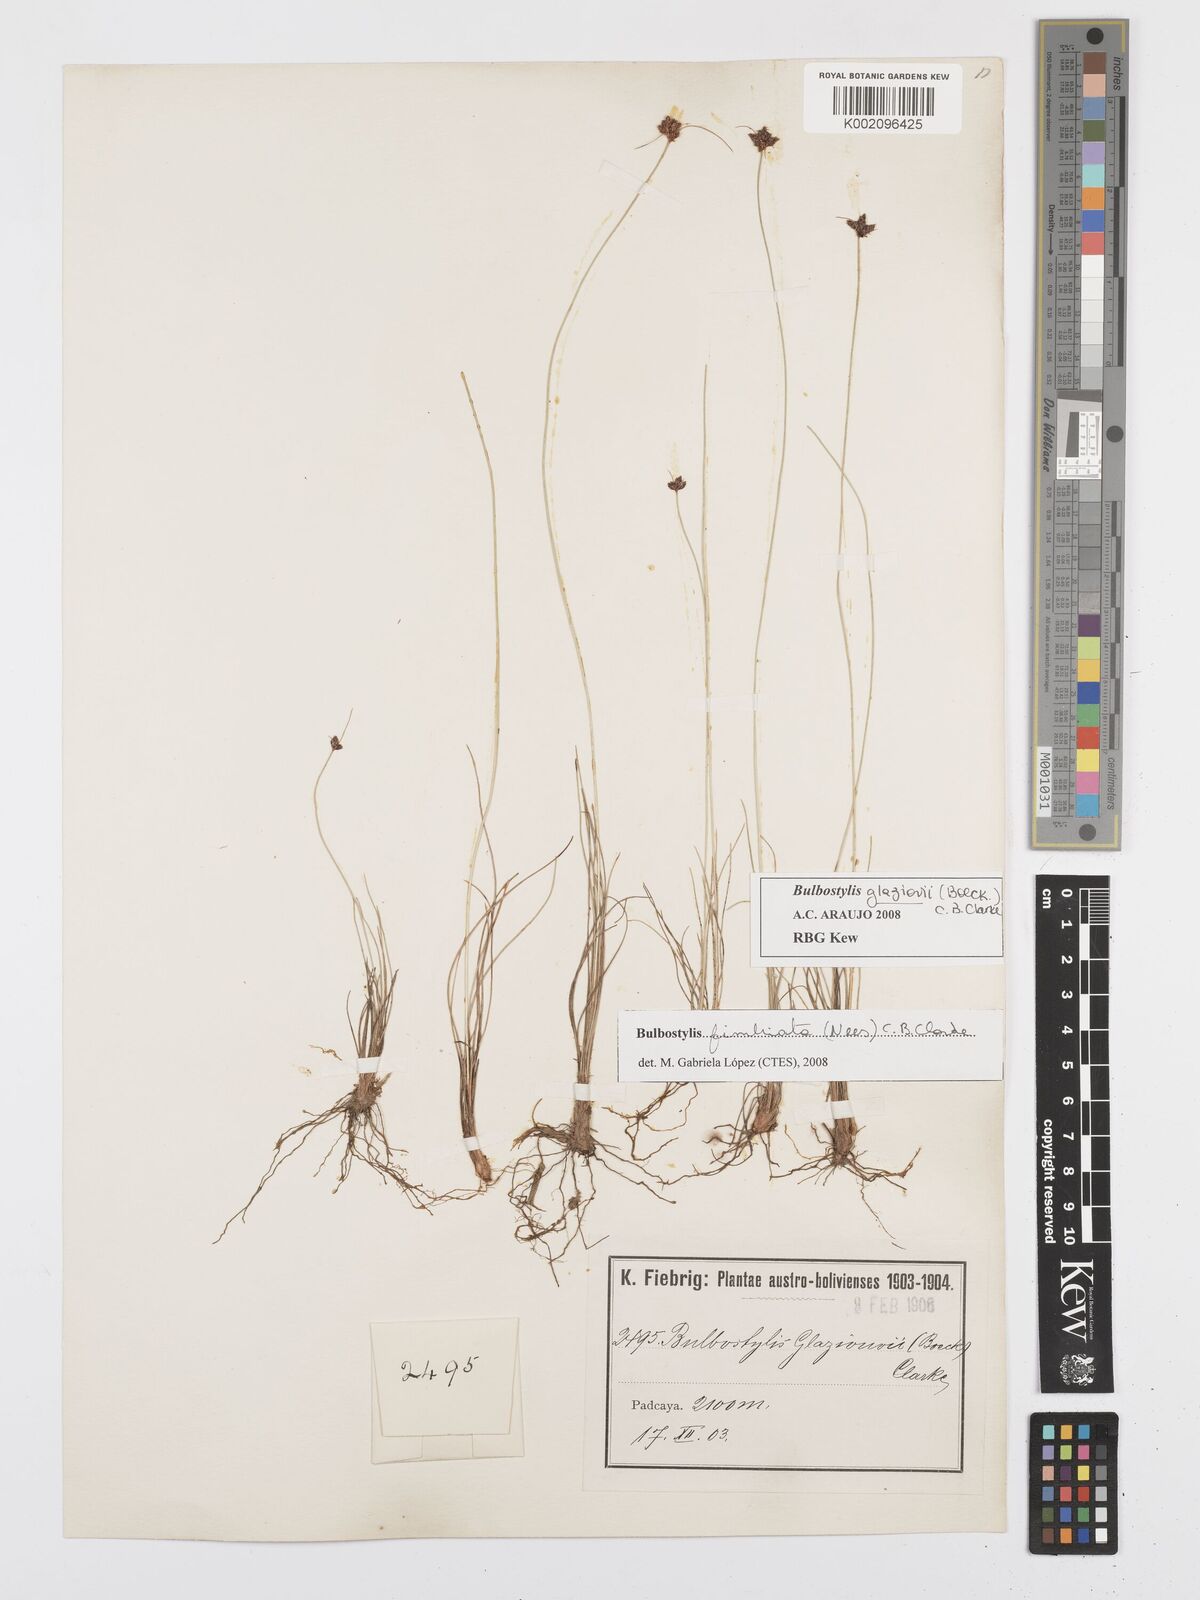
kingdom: Plantae
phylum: Tracheophyta
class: Liliopsida
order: Poales
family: Cyperaceae
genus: Bulbostylis
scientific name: Bulbostylis juncoides
